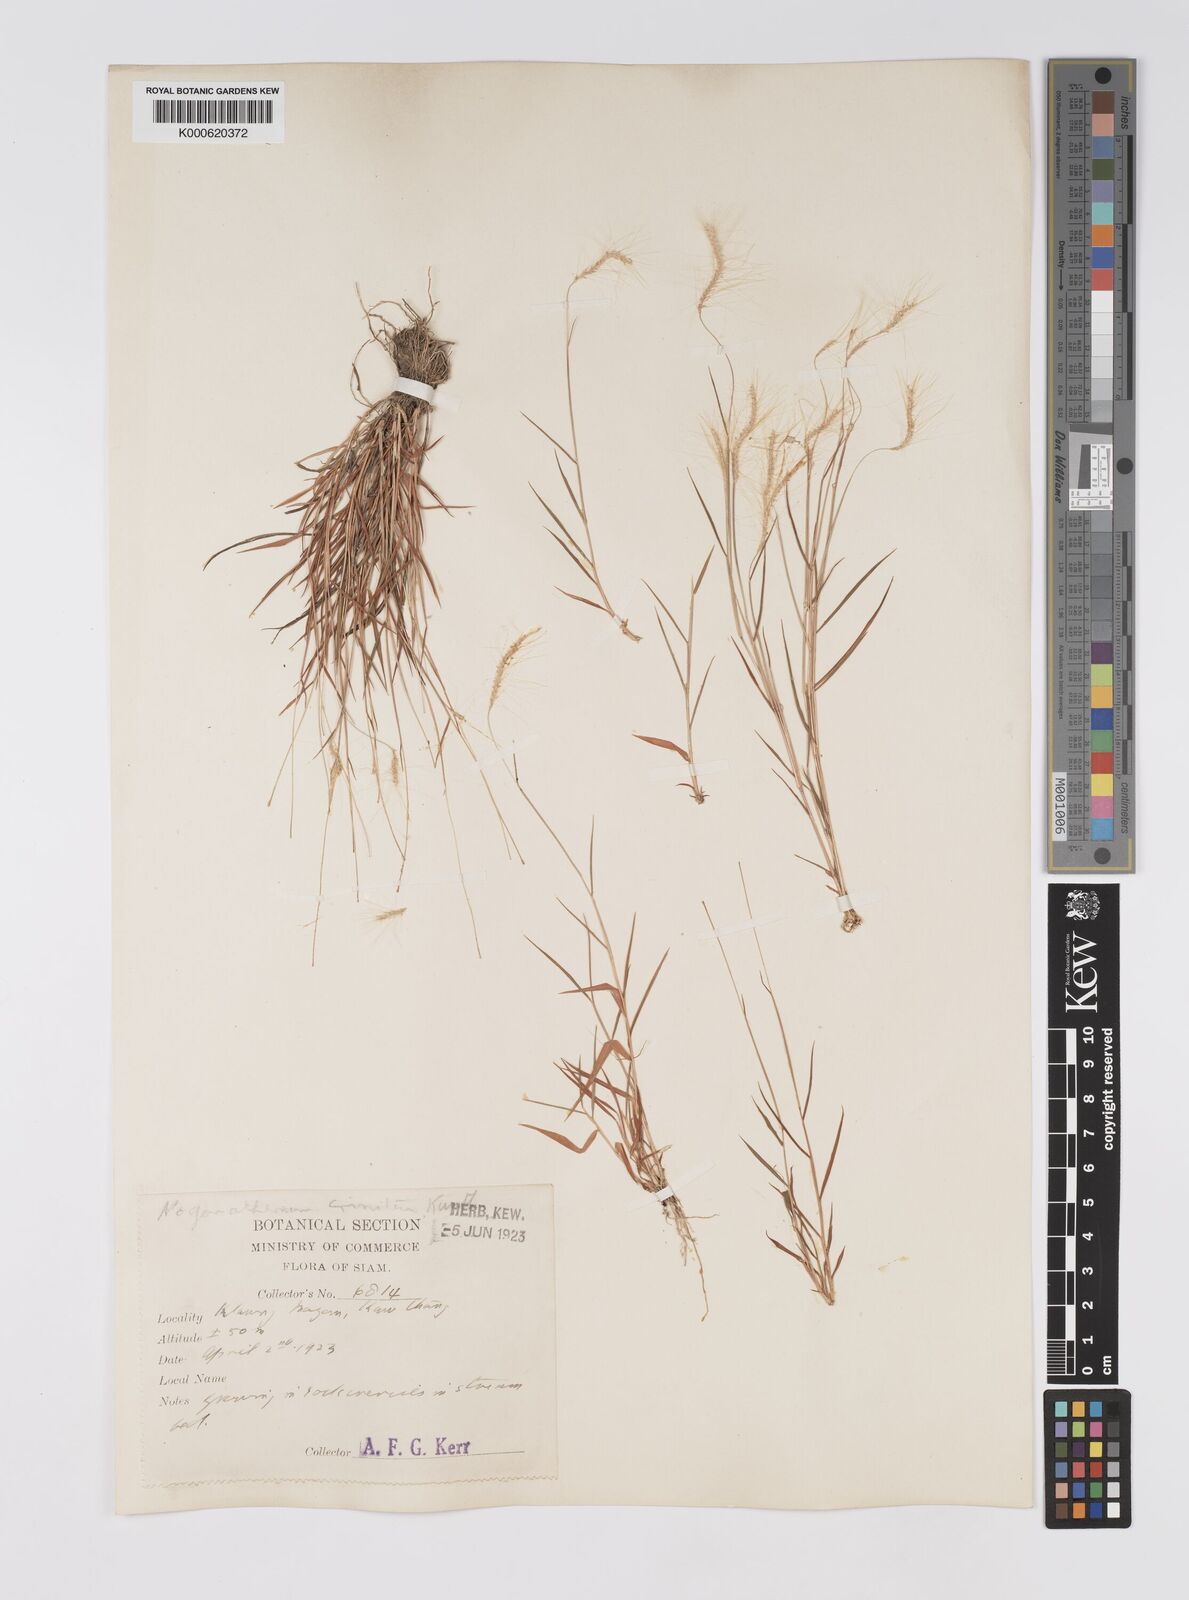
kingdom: Plantae
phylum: Tracheophyta
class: Liliopsida
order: Poales
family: Poaceae
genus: Pogonatherum
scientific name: Pogonatherum crinitum
